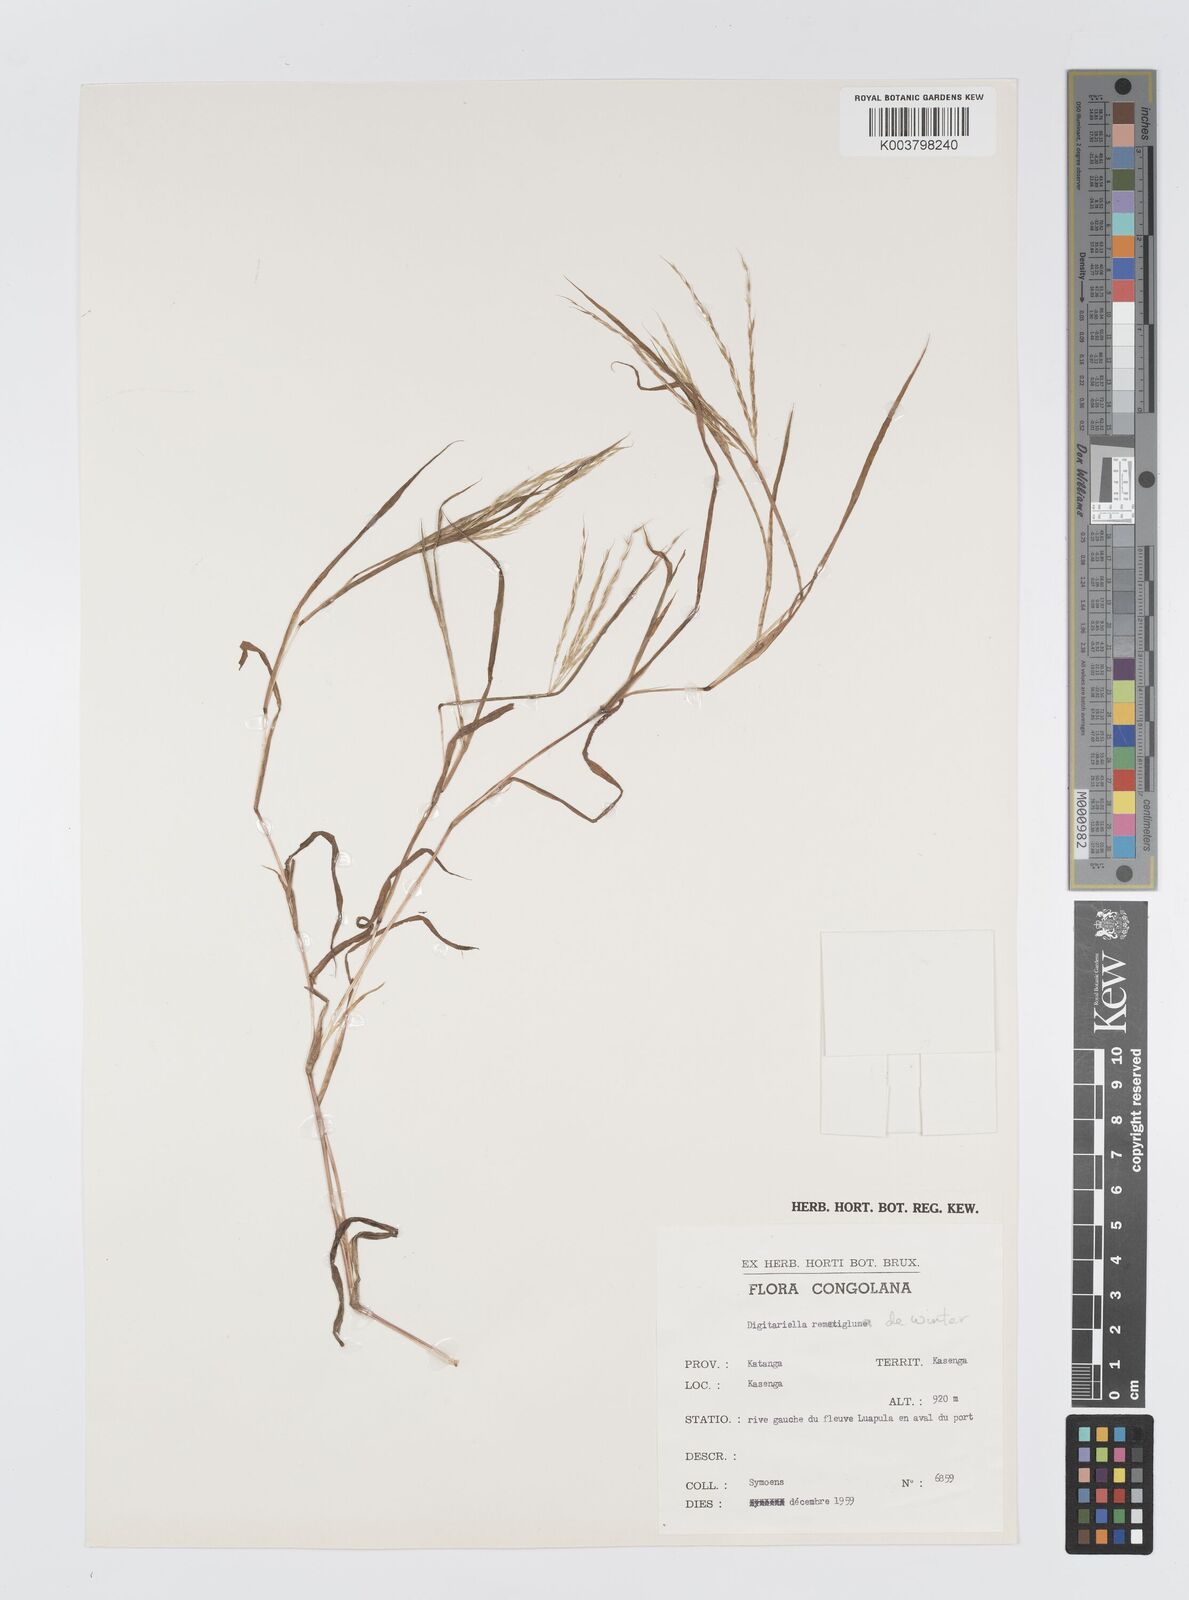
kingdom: Plantae
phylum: Tracheophyta
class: Liliopsida
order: Poales
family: Poaceae
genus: Digitaria
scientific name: Digitaria remotigluma
